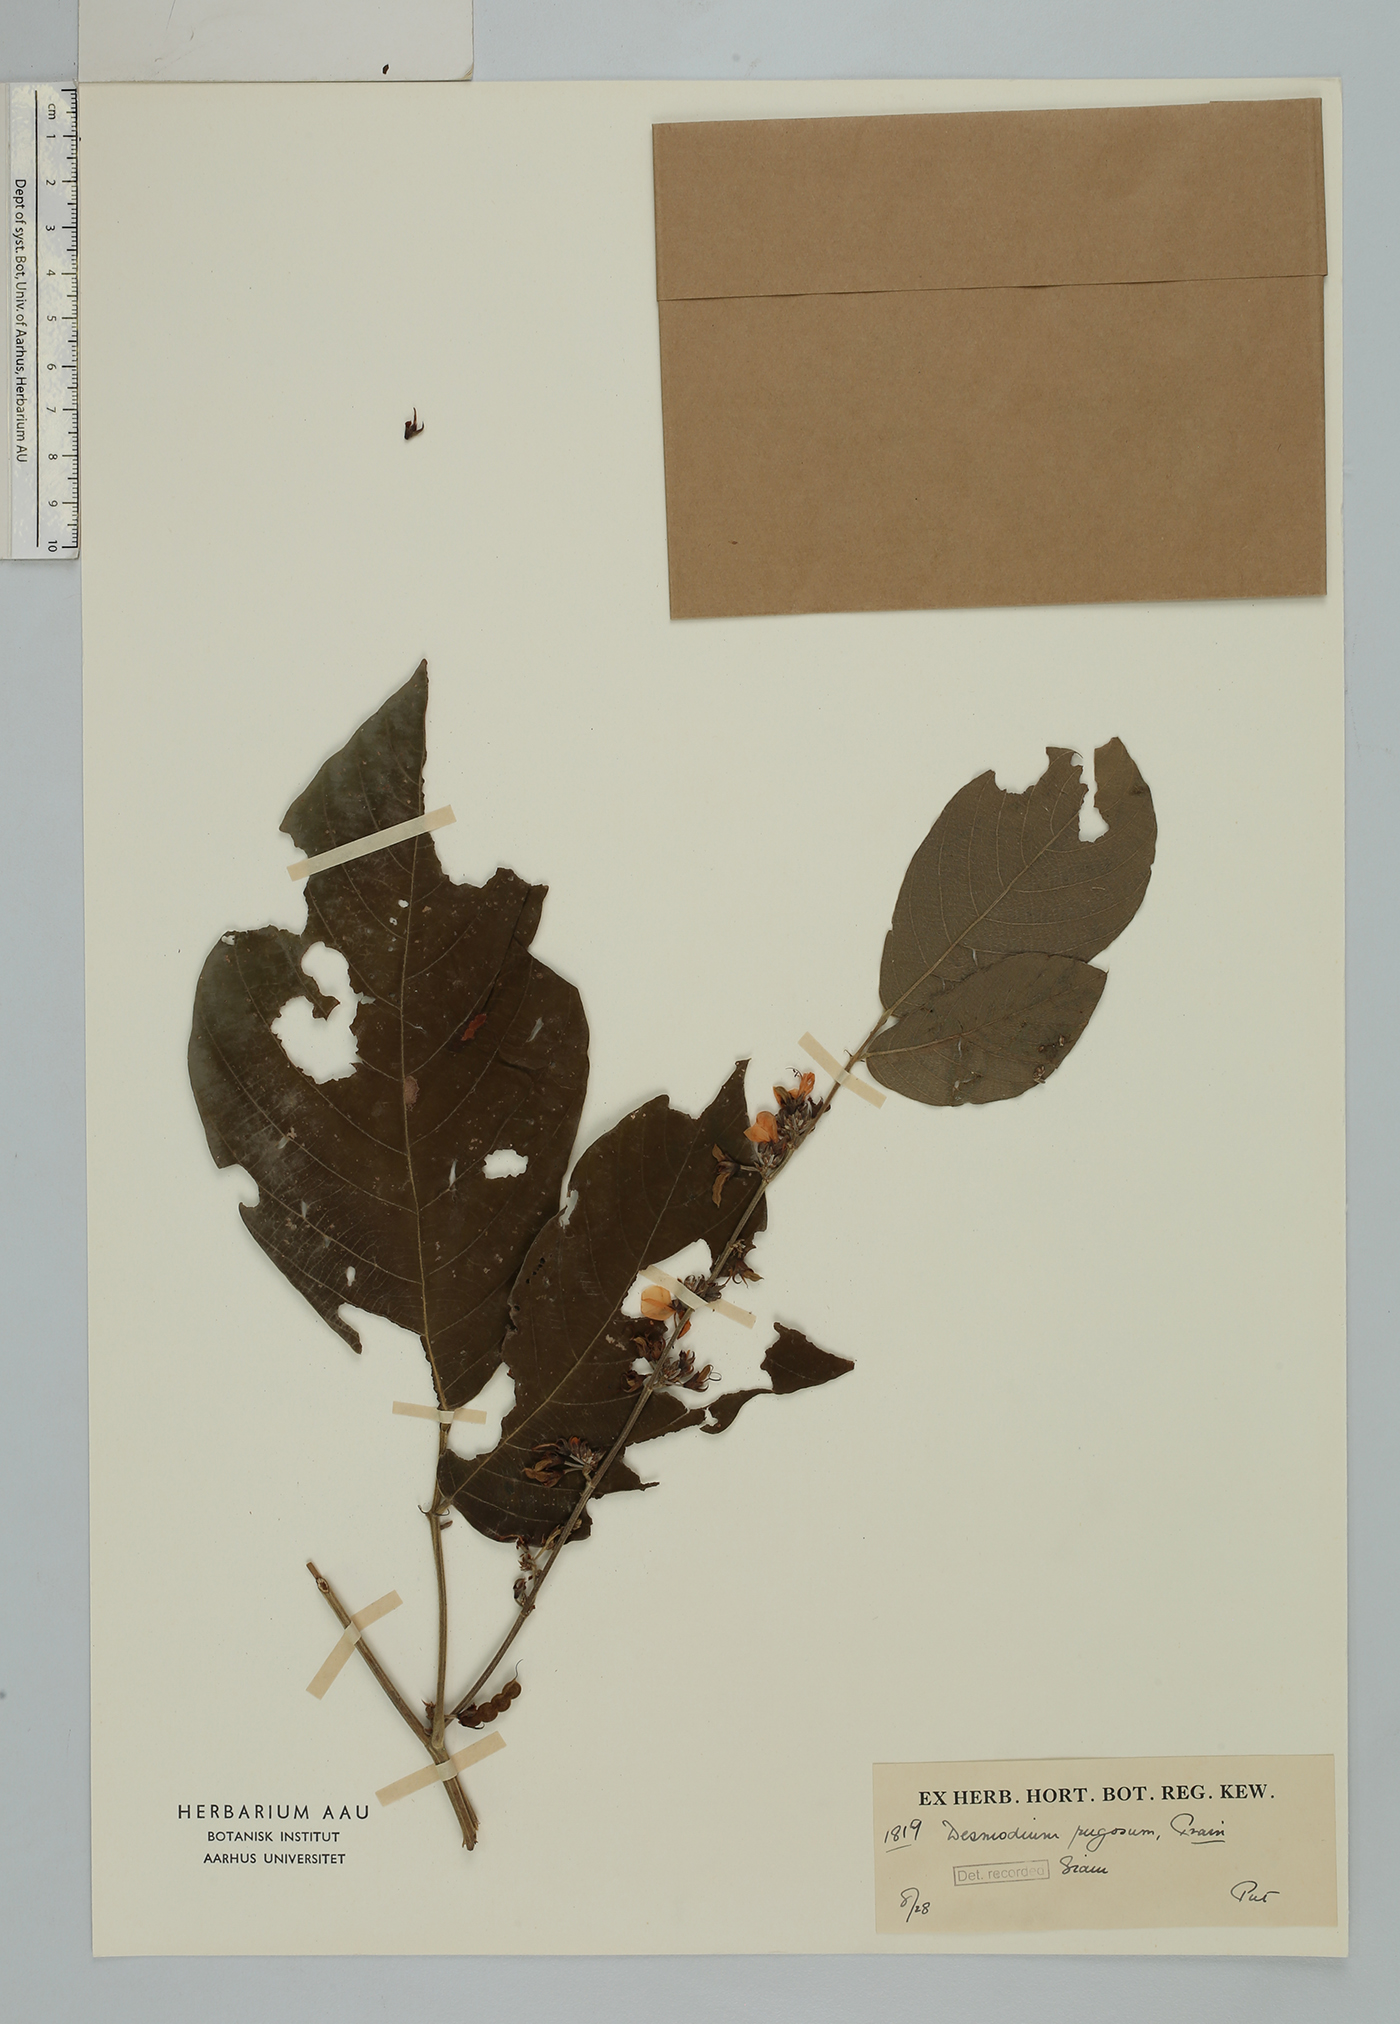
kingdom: Plantae
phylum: Tracheophyta
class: Magnoliopsida
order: Fabales
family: Fabaceae
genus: Dendrolobium
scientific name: Dendrolobium rugosum
